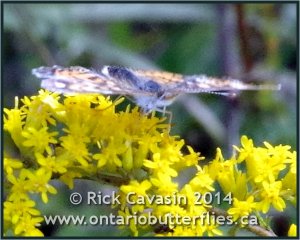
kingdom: Animalia
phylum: Arthropoda
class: Insecta
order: Lepidoptera
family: Nymphalidae
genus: Phyciodes
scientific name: Phyciodes
